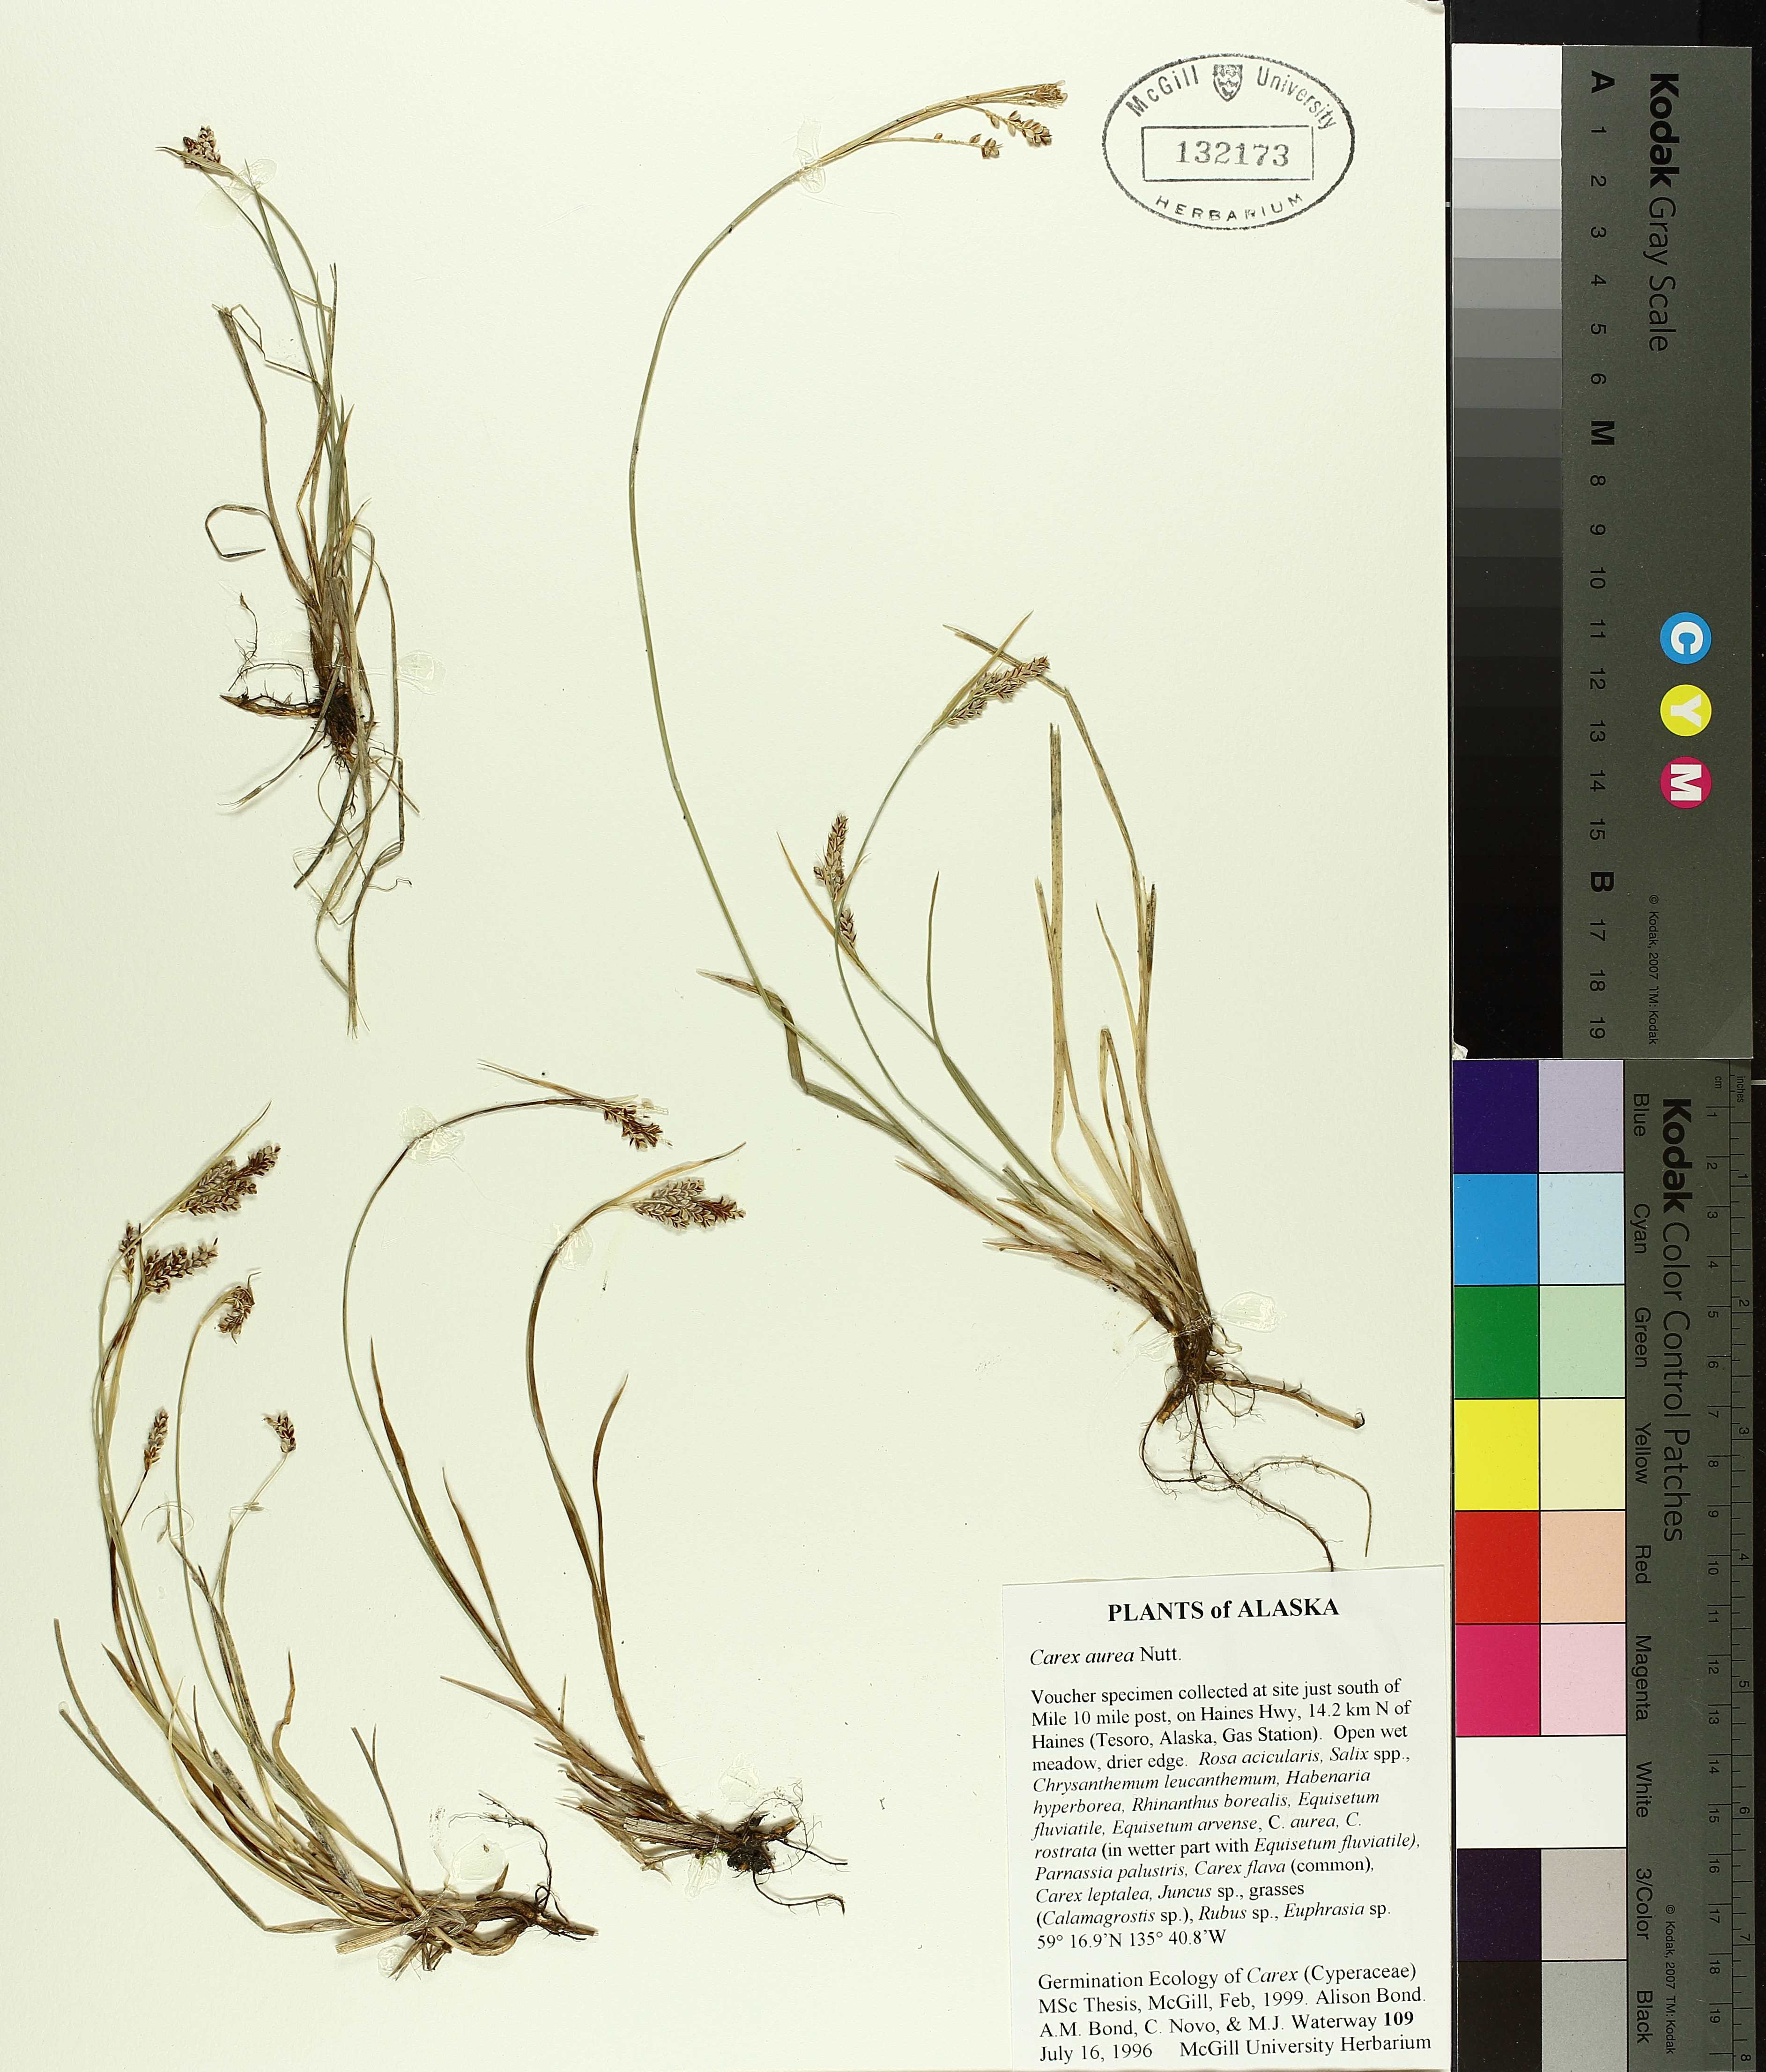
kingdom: Plantae
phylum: Tracheophyta
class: Liliopsida
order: Poales
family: Cyperaceae
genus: Carex
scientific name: Carex aurea
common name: Golden sedge
